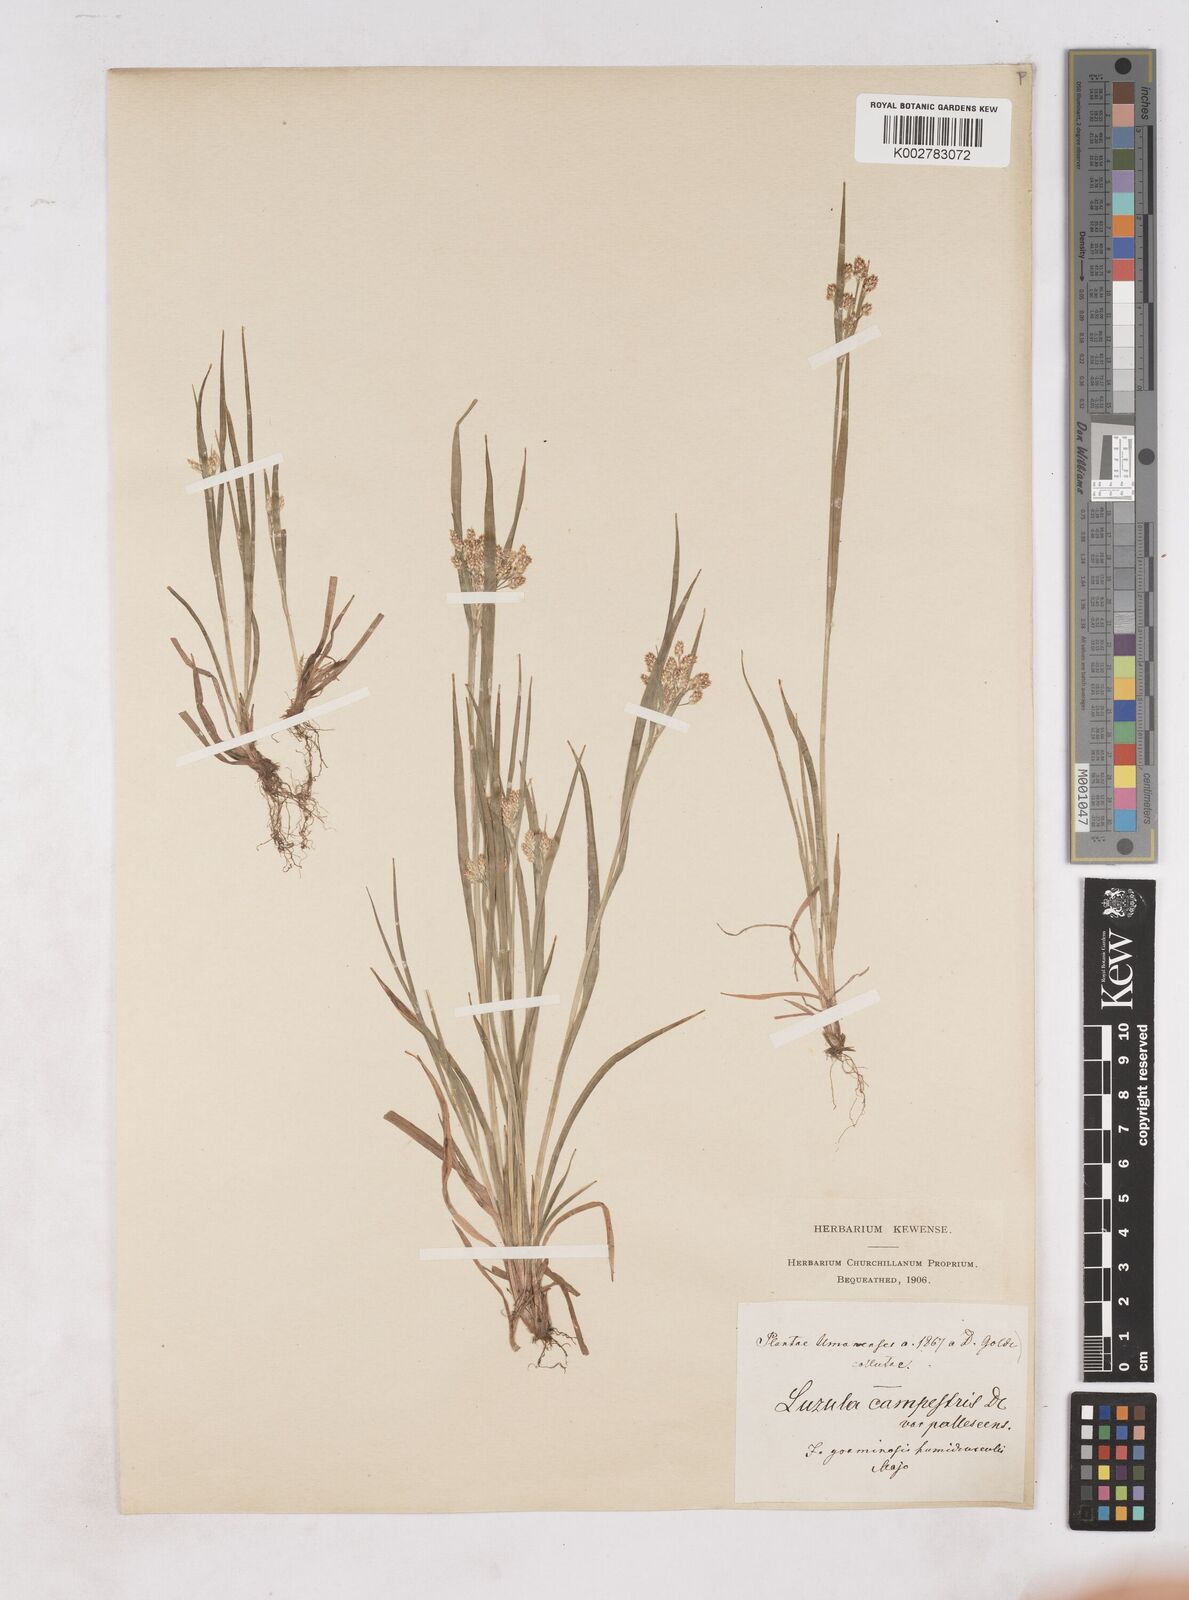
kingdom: Plantae
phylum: Tracheophyta
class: Liliopsida
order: Poales
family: Juncaceae
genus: Luzula
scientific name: Luzula pallescens
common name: Fen wood-rush
